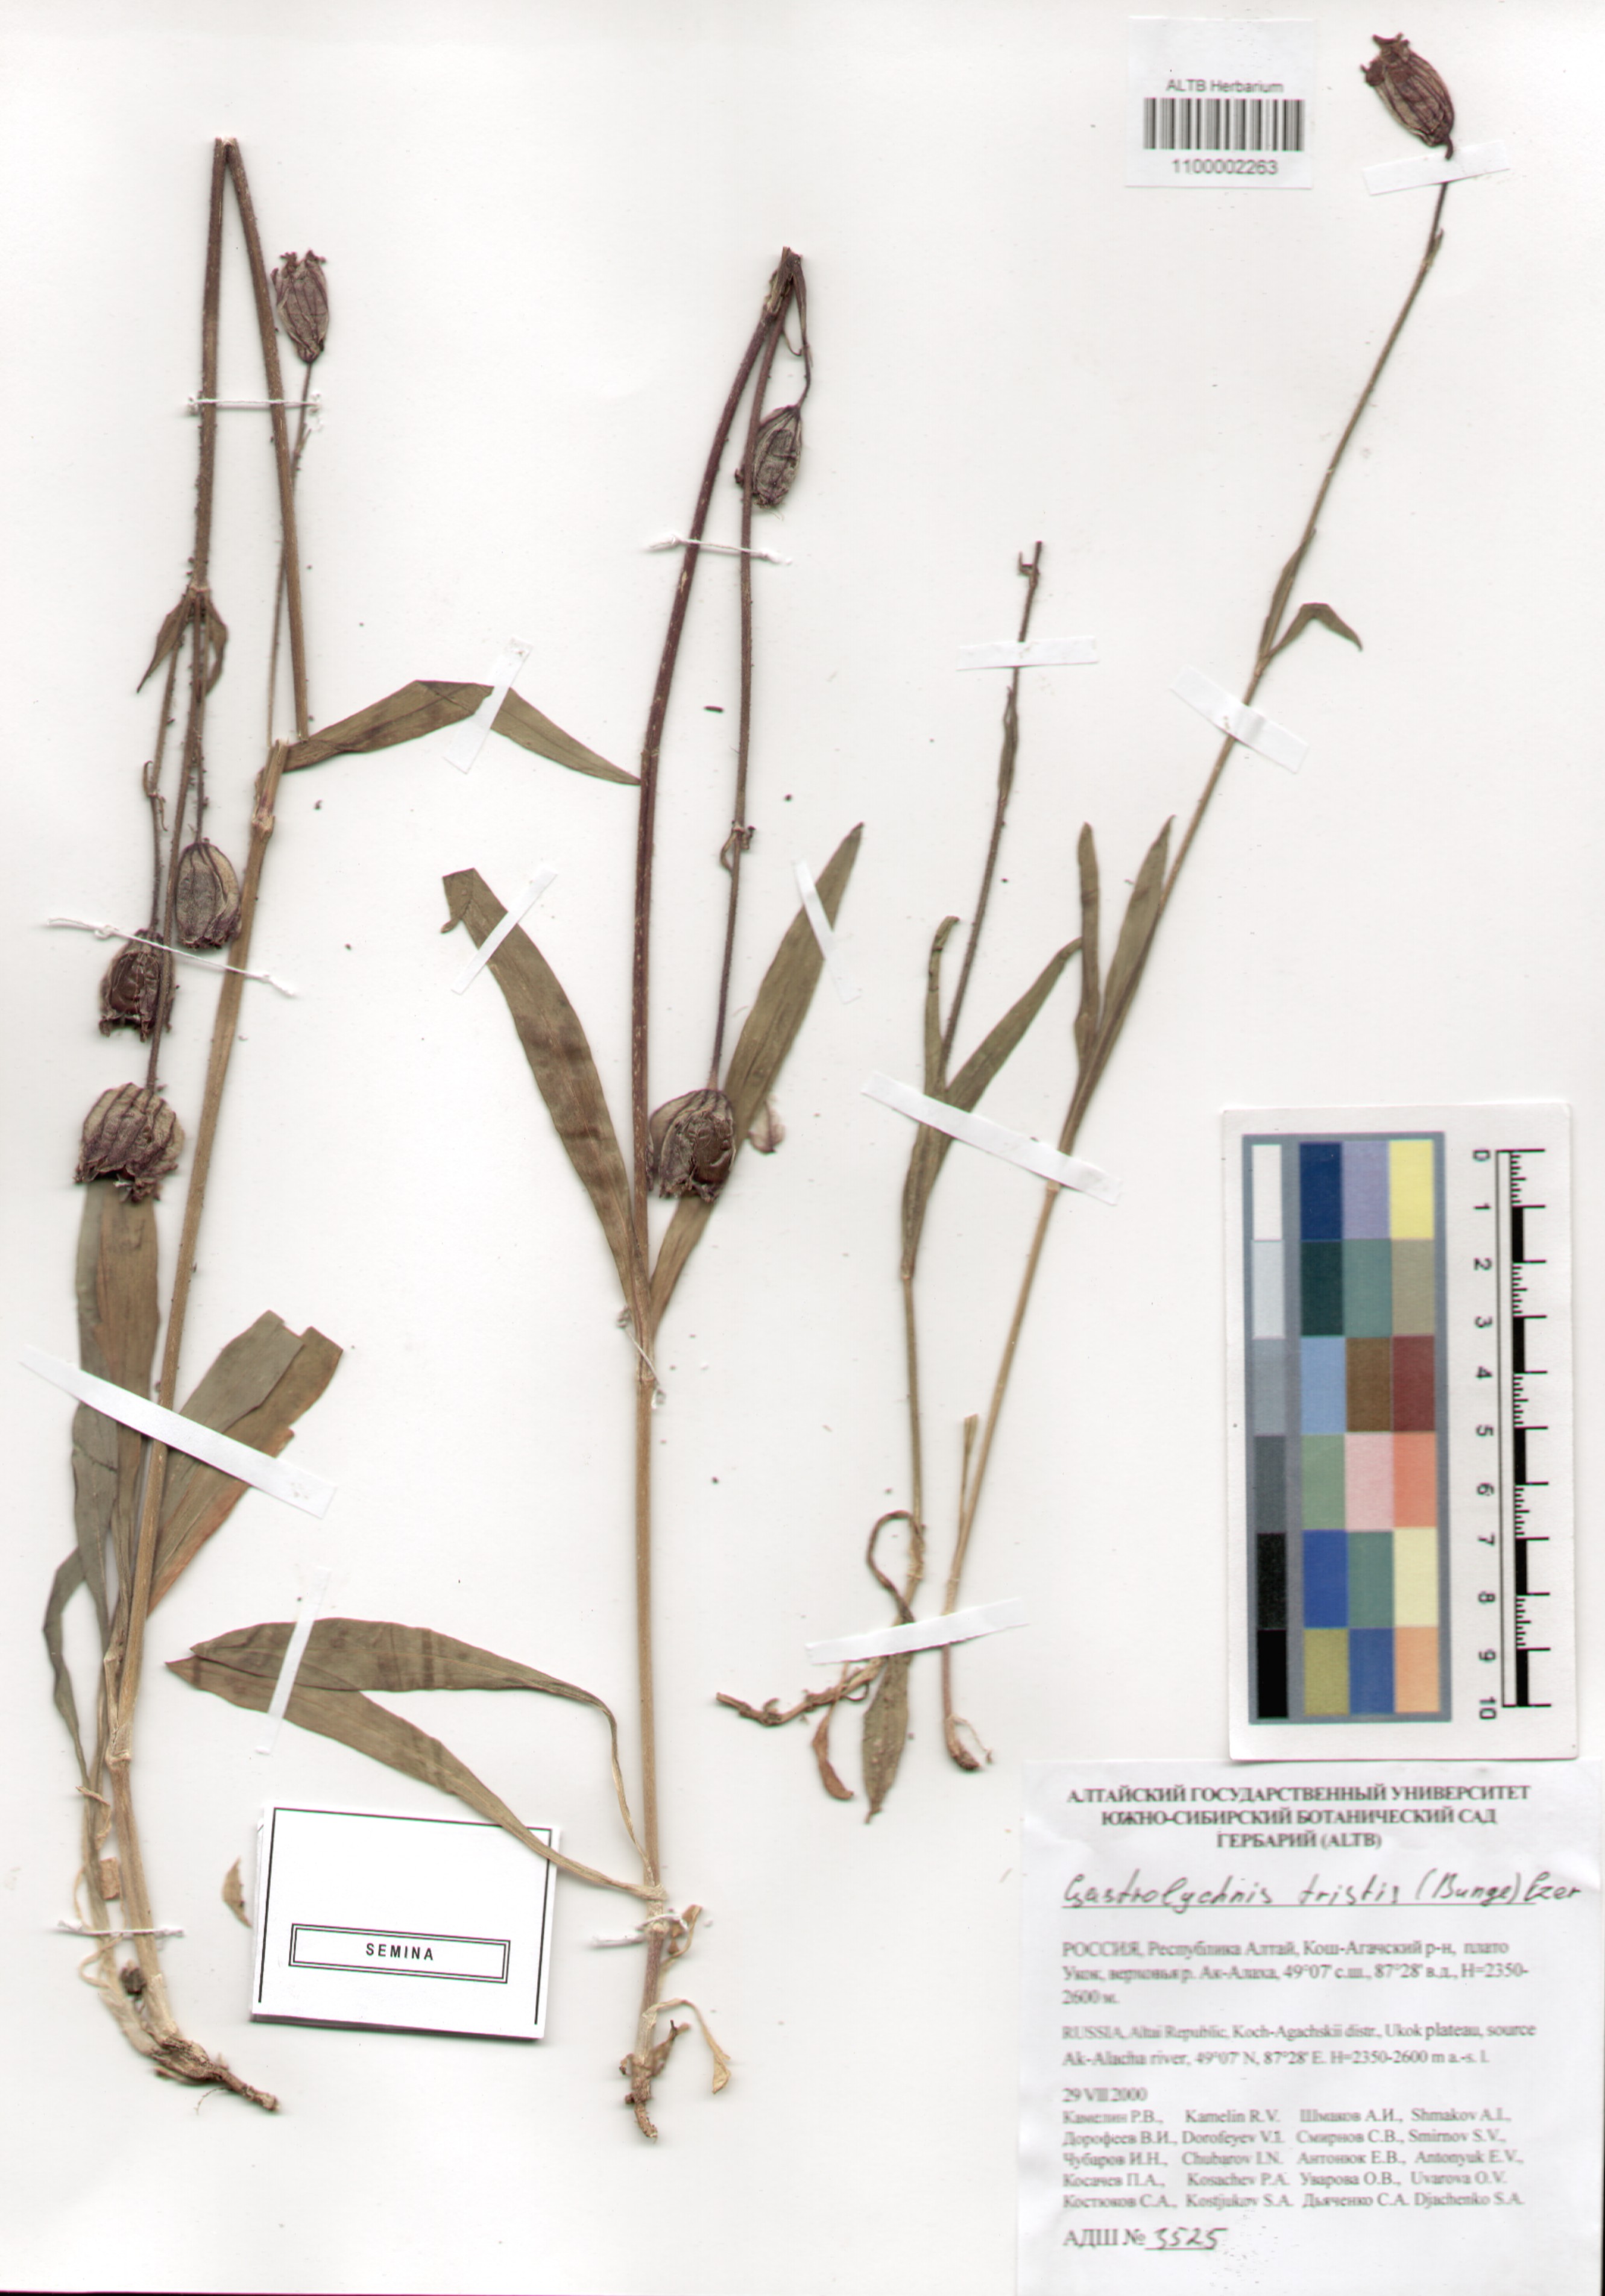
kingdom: Plantae
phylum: Tracheophyta
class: Magnoliopsida
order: Caryophyllales
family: Caryophyllaceae
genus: Silene
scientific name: Silene bungei
